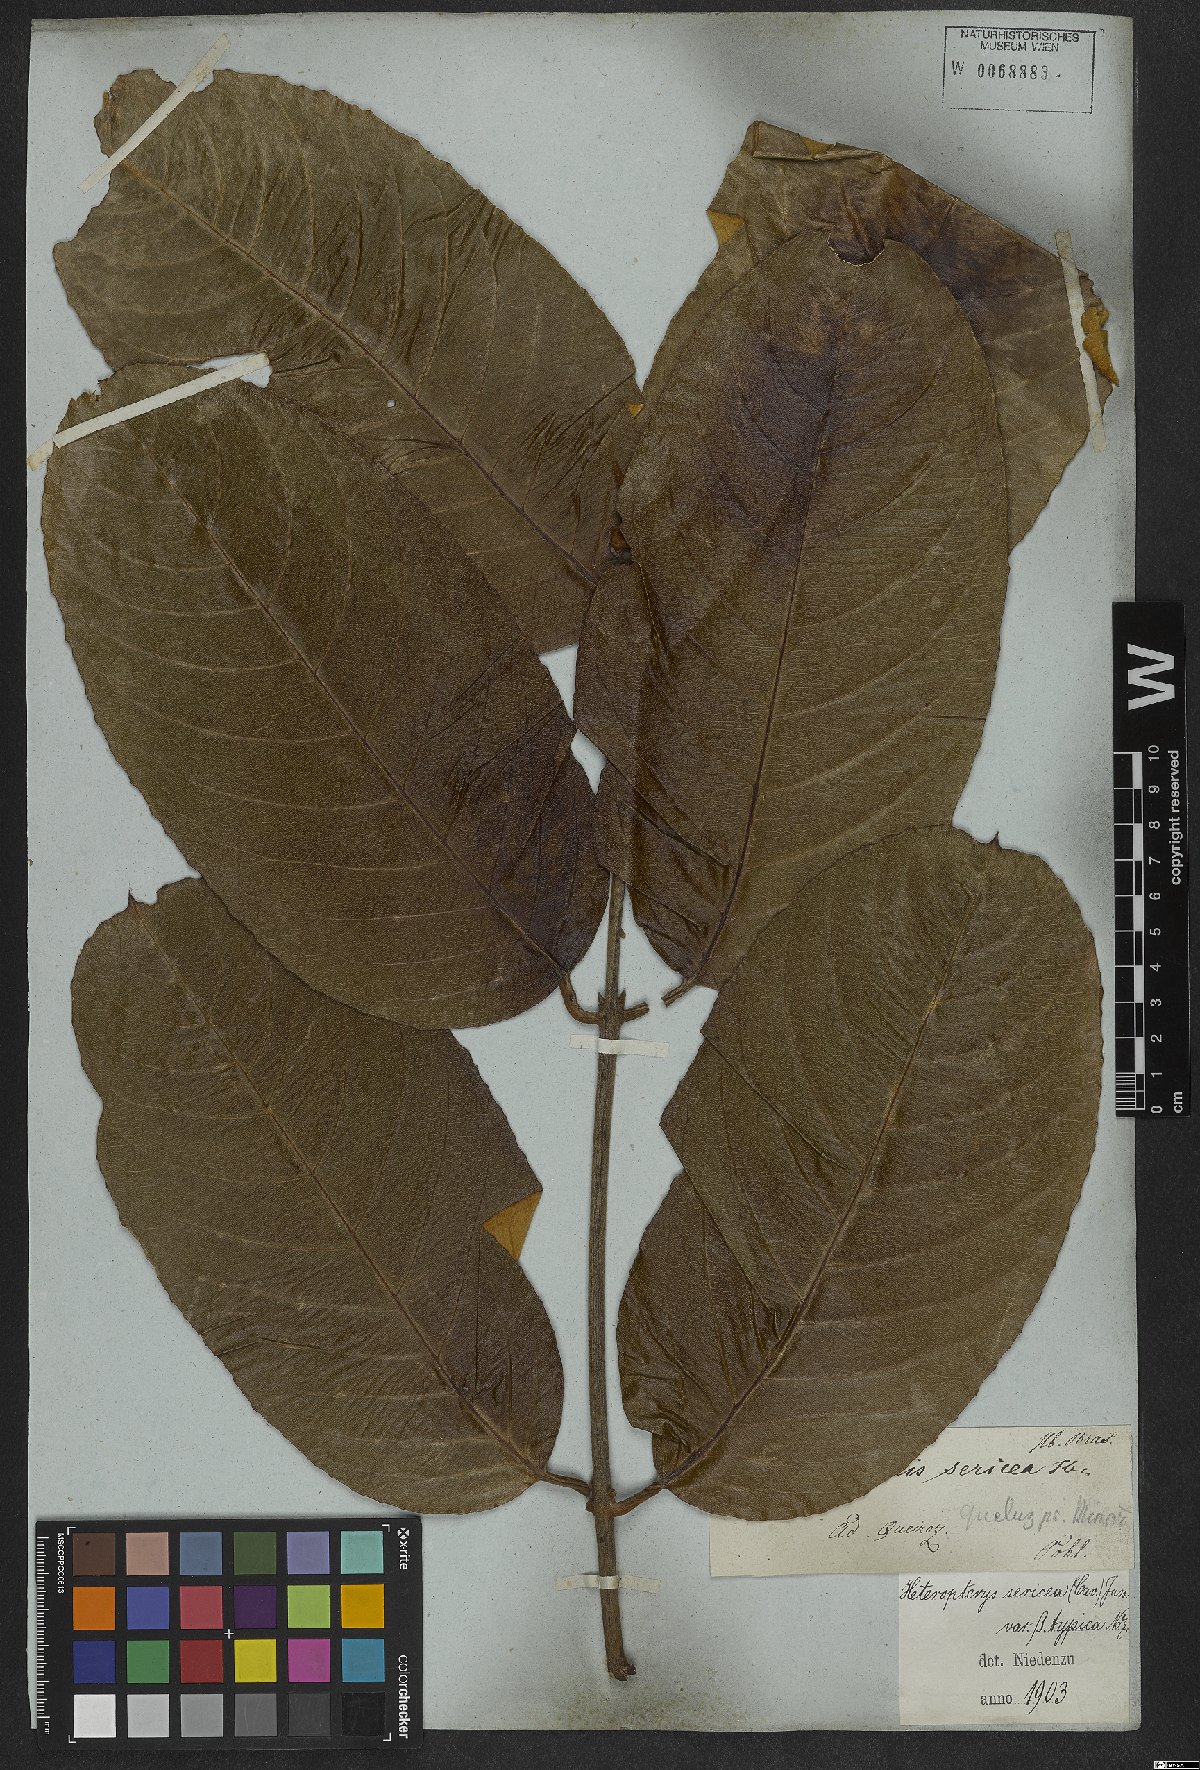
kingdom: Plantae
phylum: Tracheophyta
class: Magnoliopsida
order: Malpighiales
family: Malpighiaceae
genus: Heteropterys
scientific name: Heteropterys sericea
